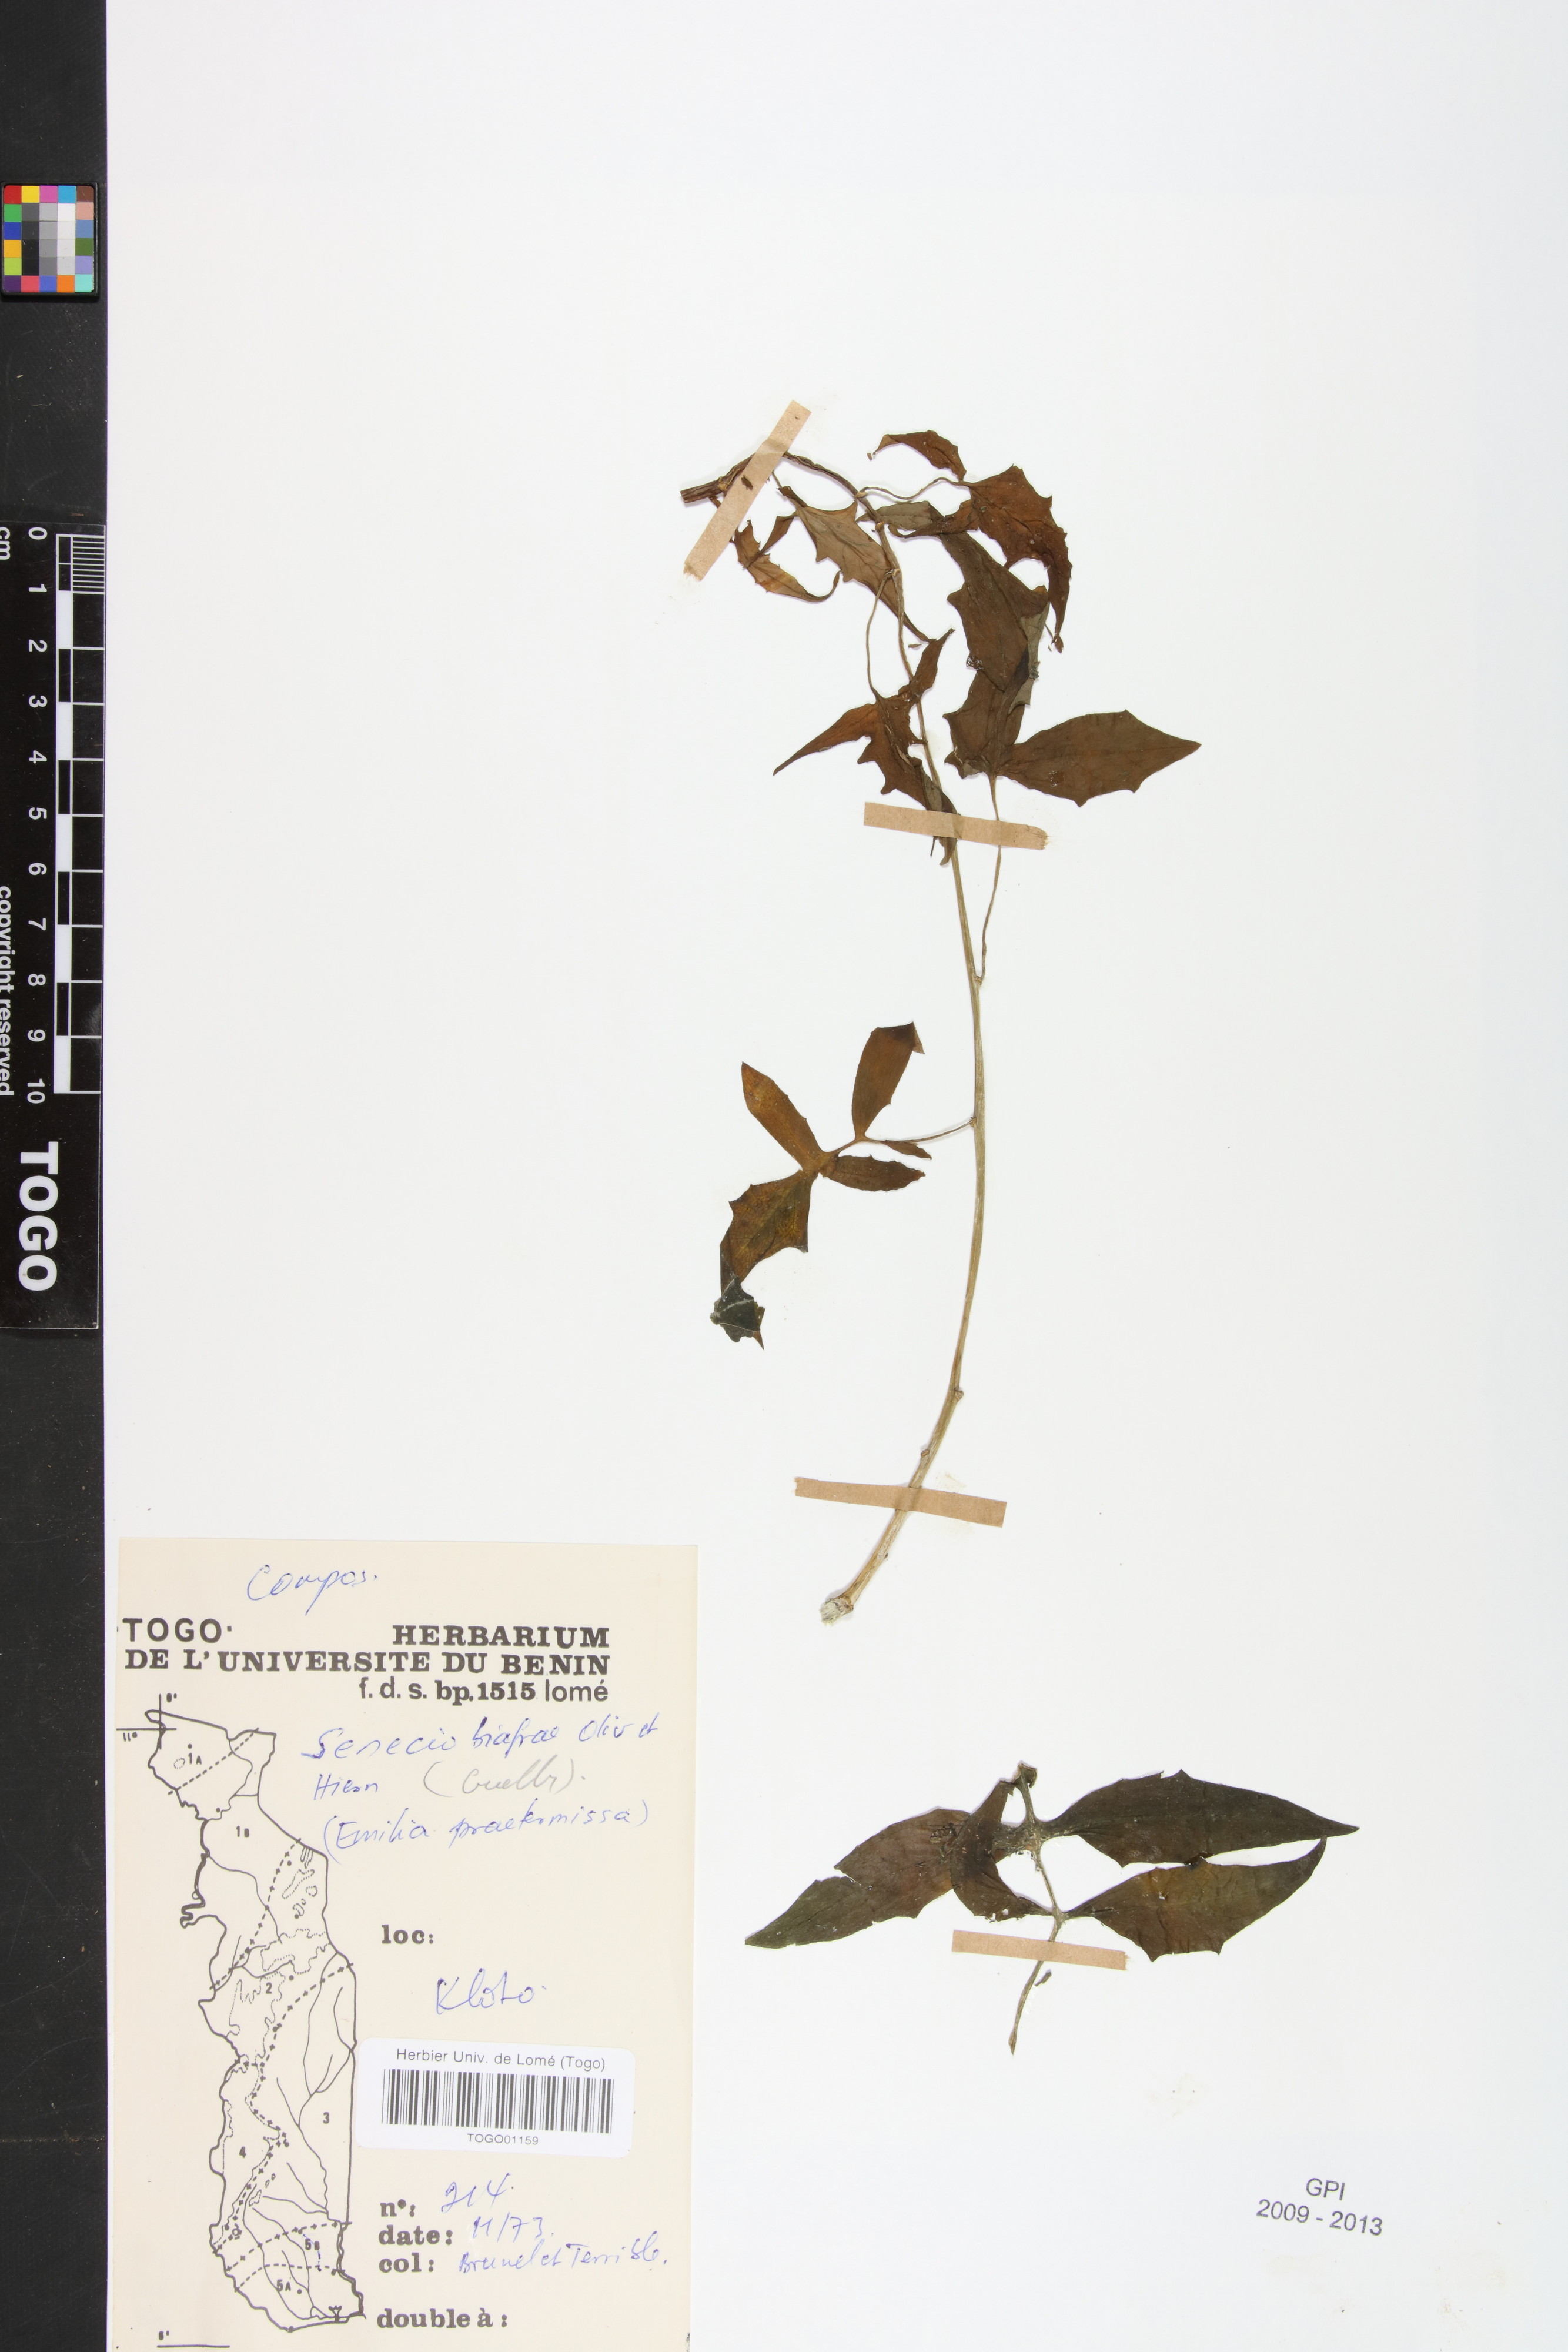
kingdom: Plantae
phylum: Tracheophyta
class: Magnoliopsida
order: Asterales
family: Asteraceae
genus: Solanecio
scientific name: Solanecio biafrae
